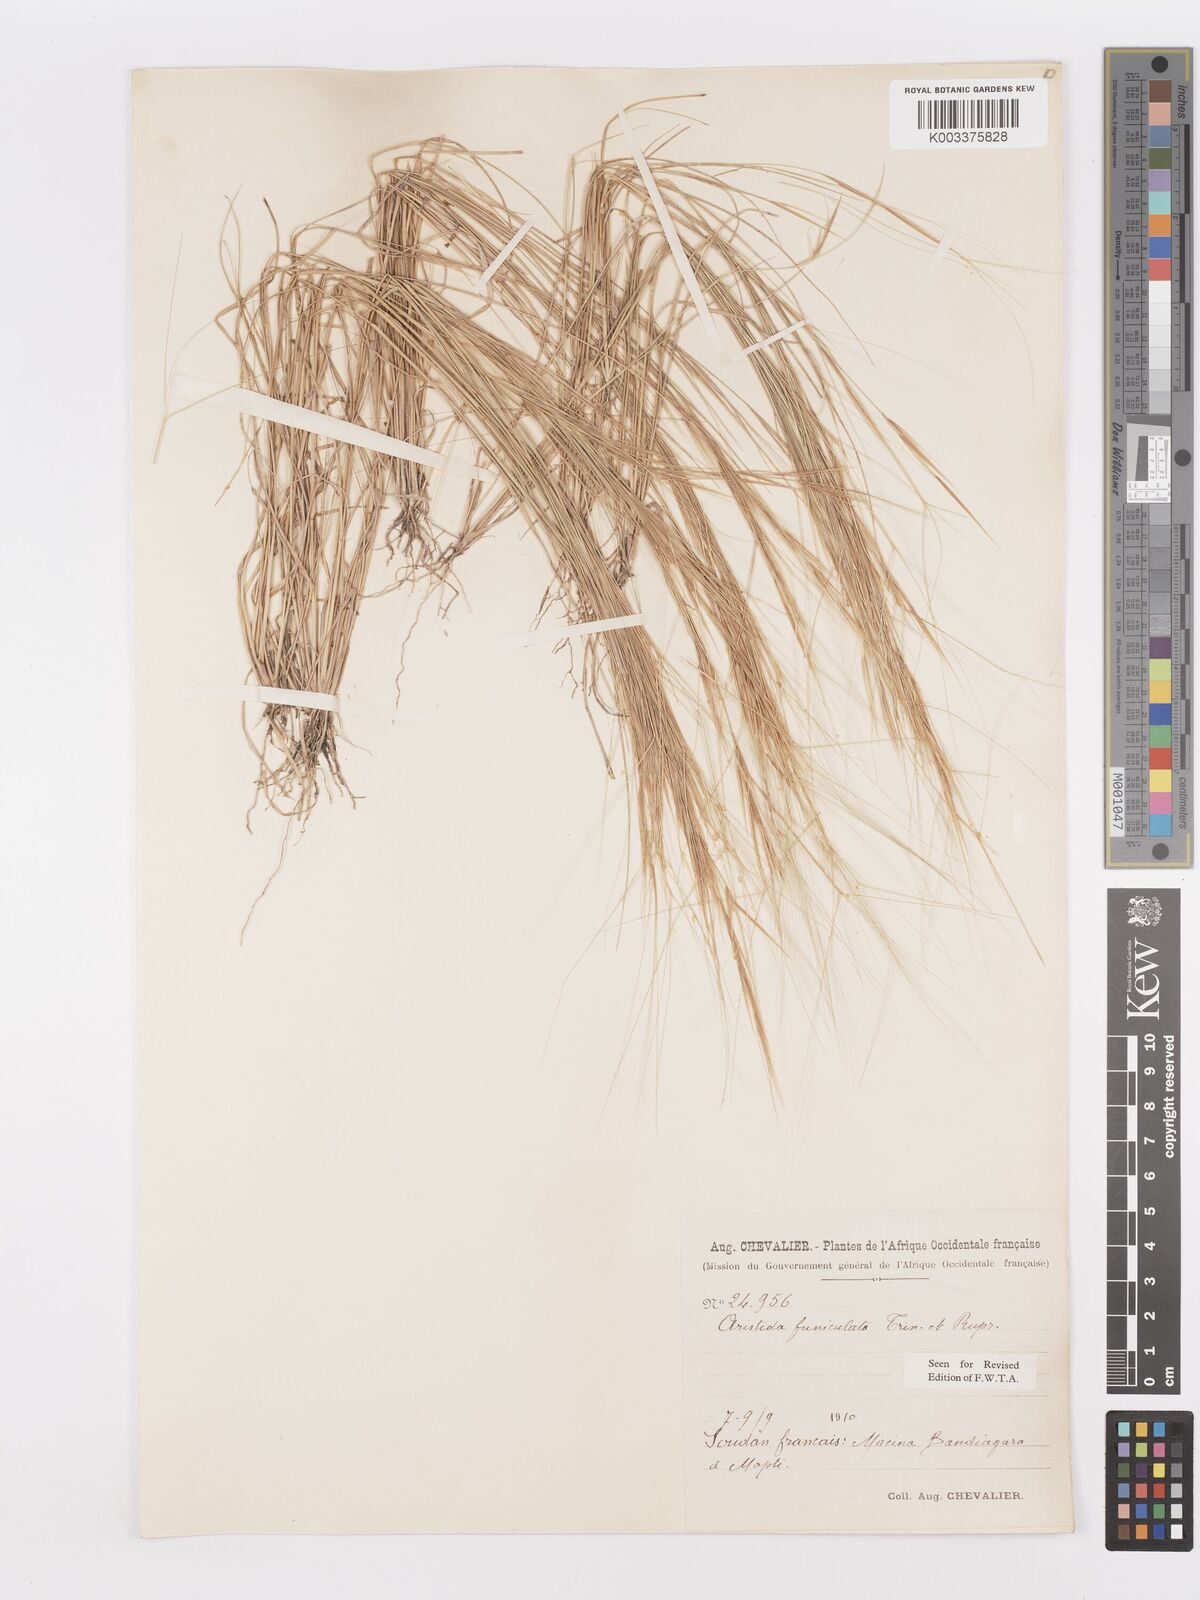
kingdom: Plantae
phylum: Tracheophyta
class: Liliopsida
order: Poales
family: Poaceae
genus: Aristida
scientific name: Aristida funiculata
